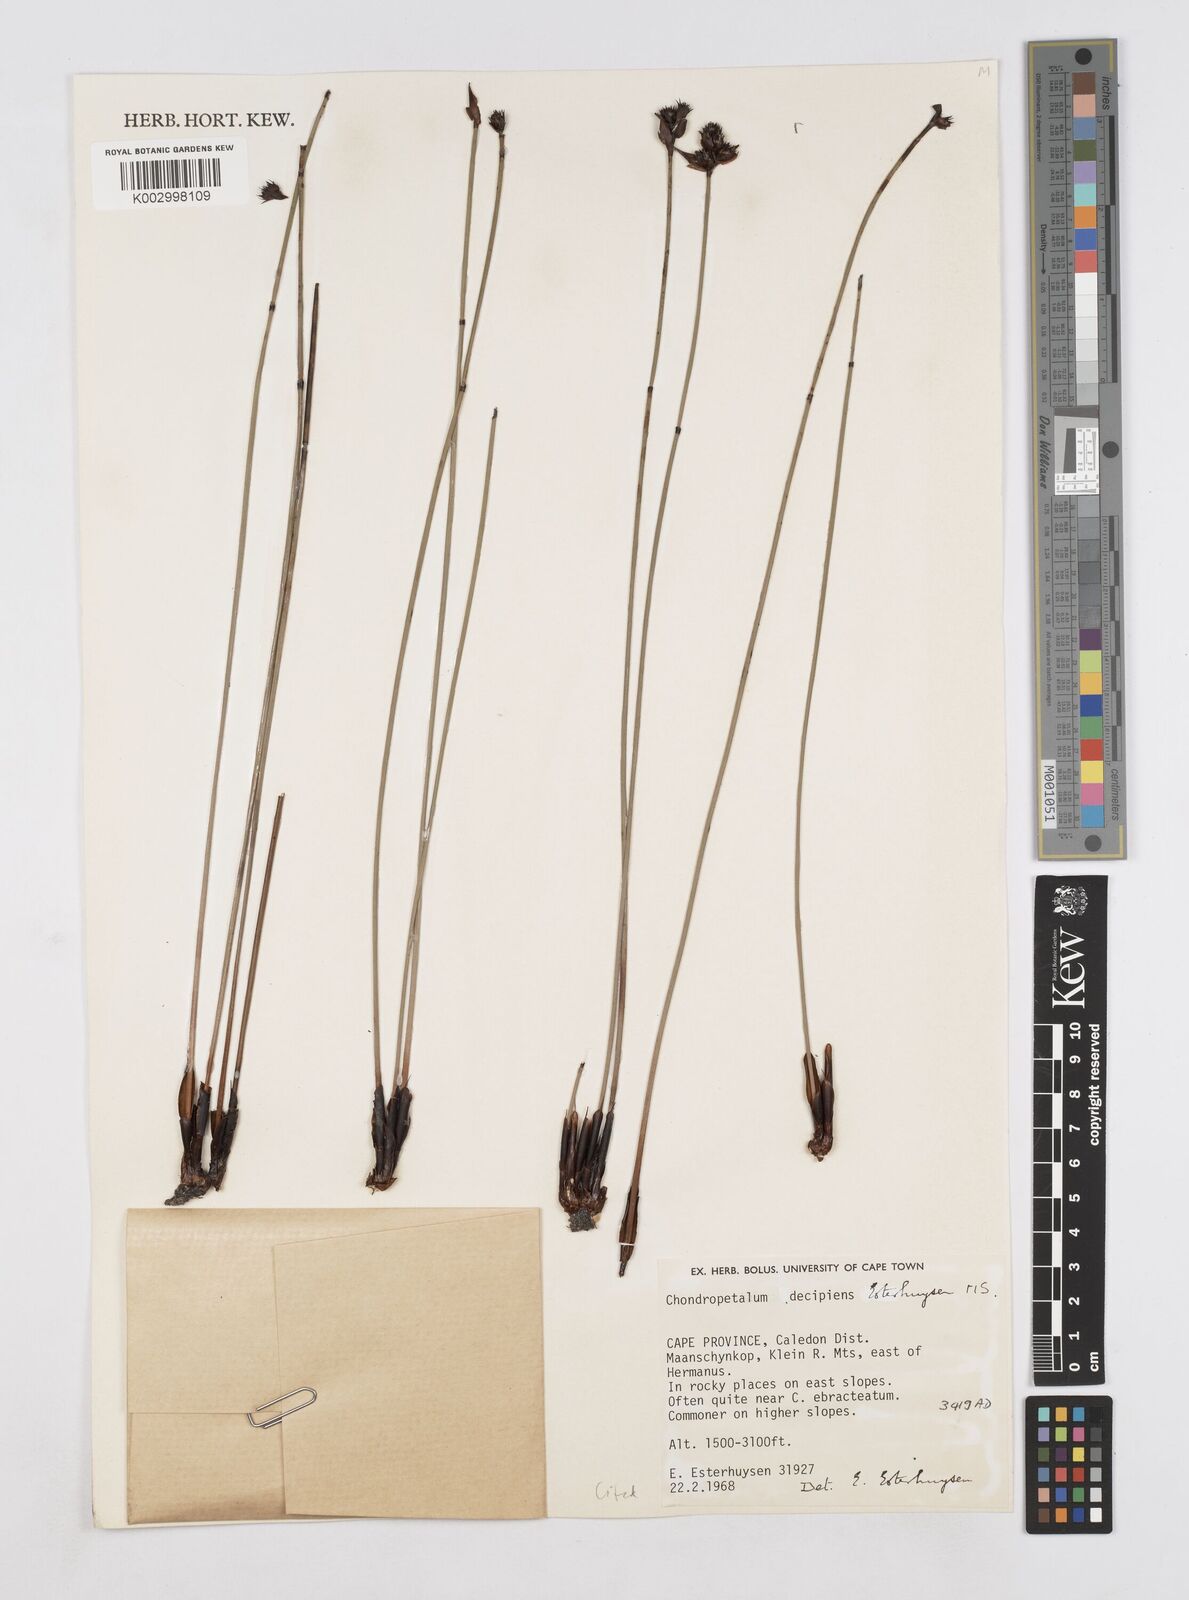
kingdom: Plantae
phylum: Tracheophyta
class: Liliopsida
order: Poales
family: Restionaceae
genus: Elegia
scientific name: Elegia
